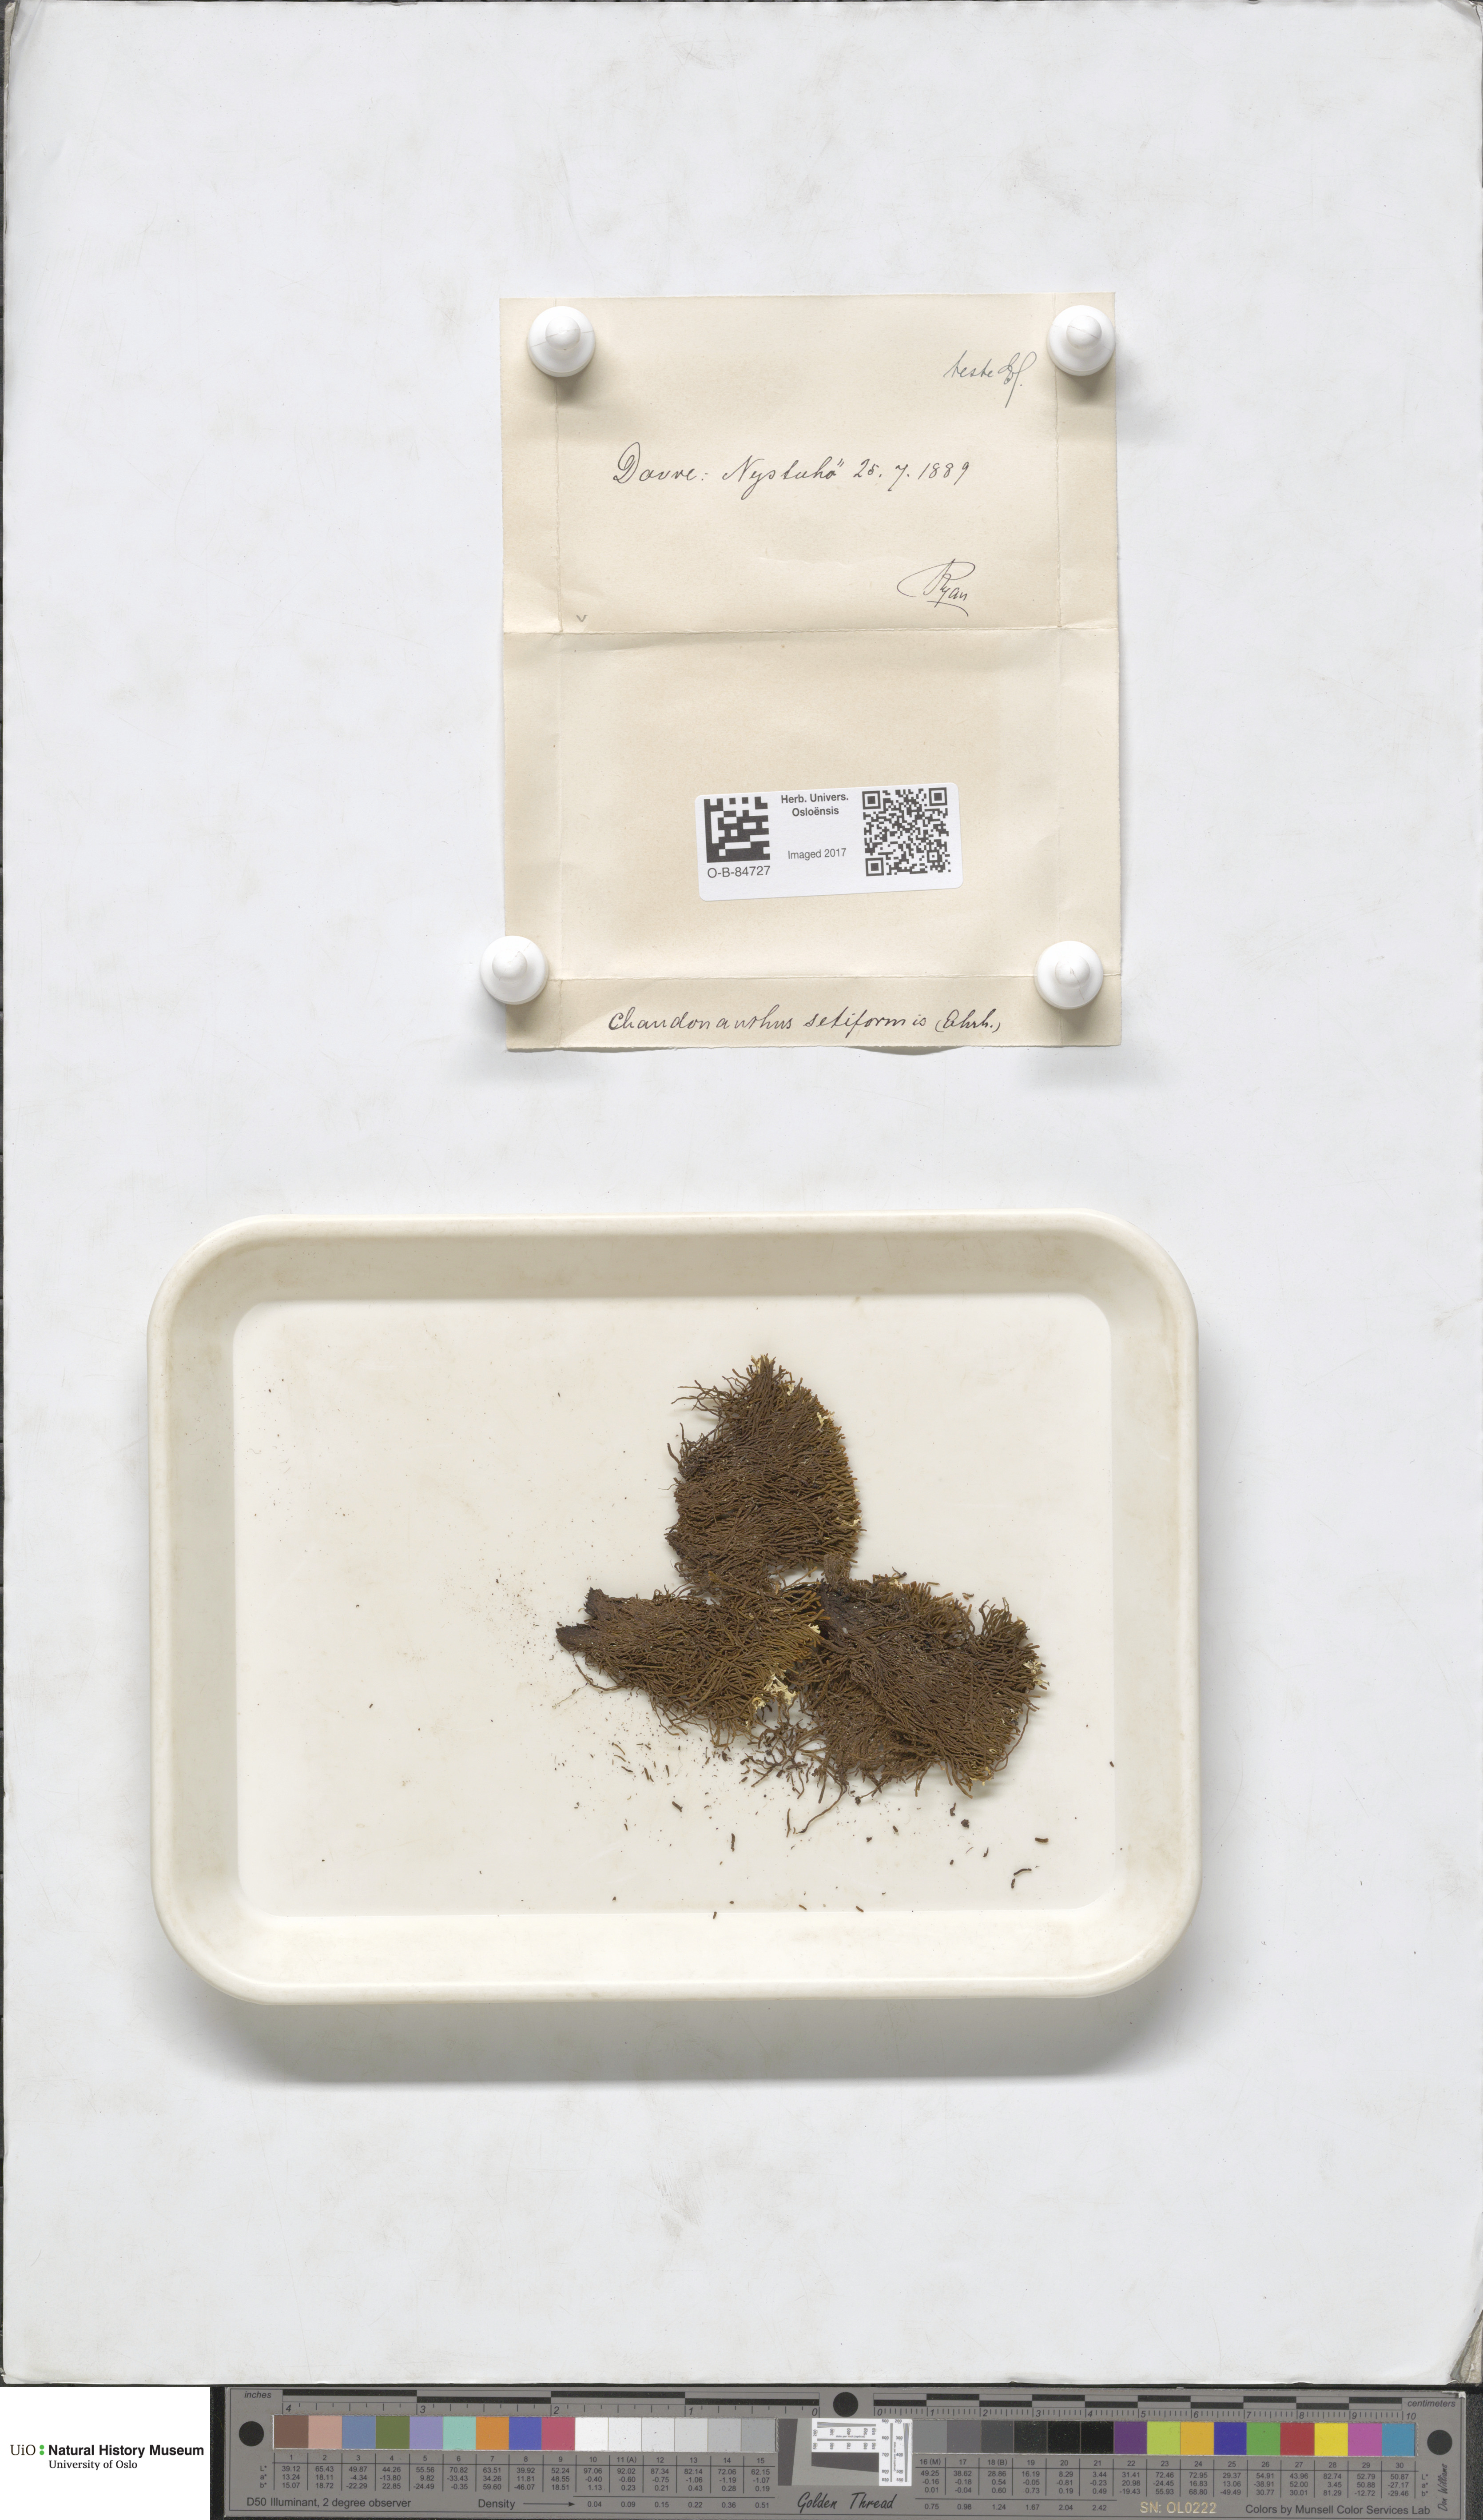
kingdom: Plantae
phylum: Marchantiophyta
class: Jungermanniopsida
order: Jungermanniales
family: Anastrophyllaceae
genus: Tetralophozia
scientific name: Tetralophozia setiformis
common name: Monster pawwort
